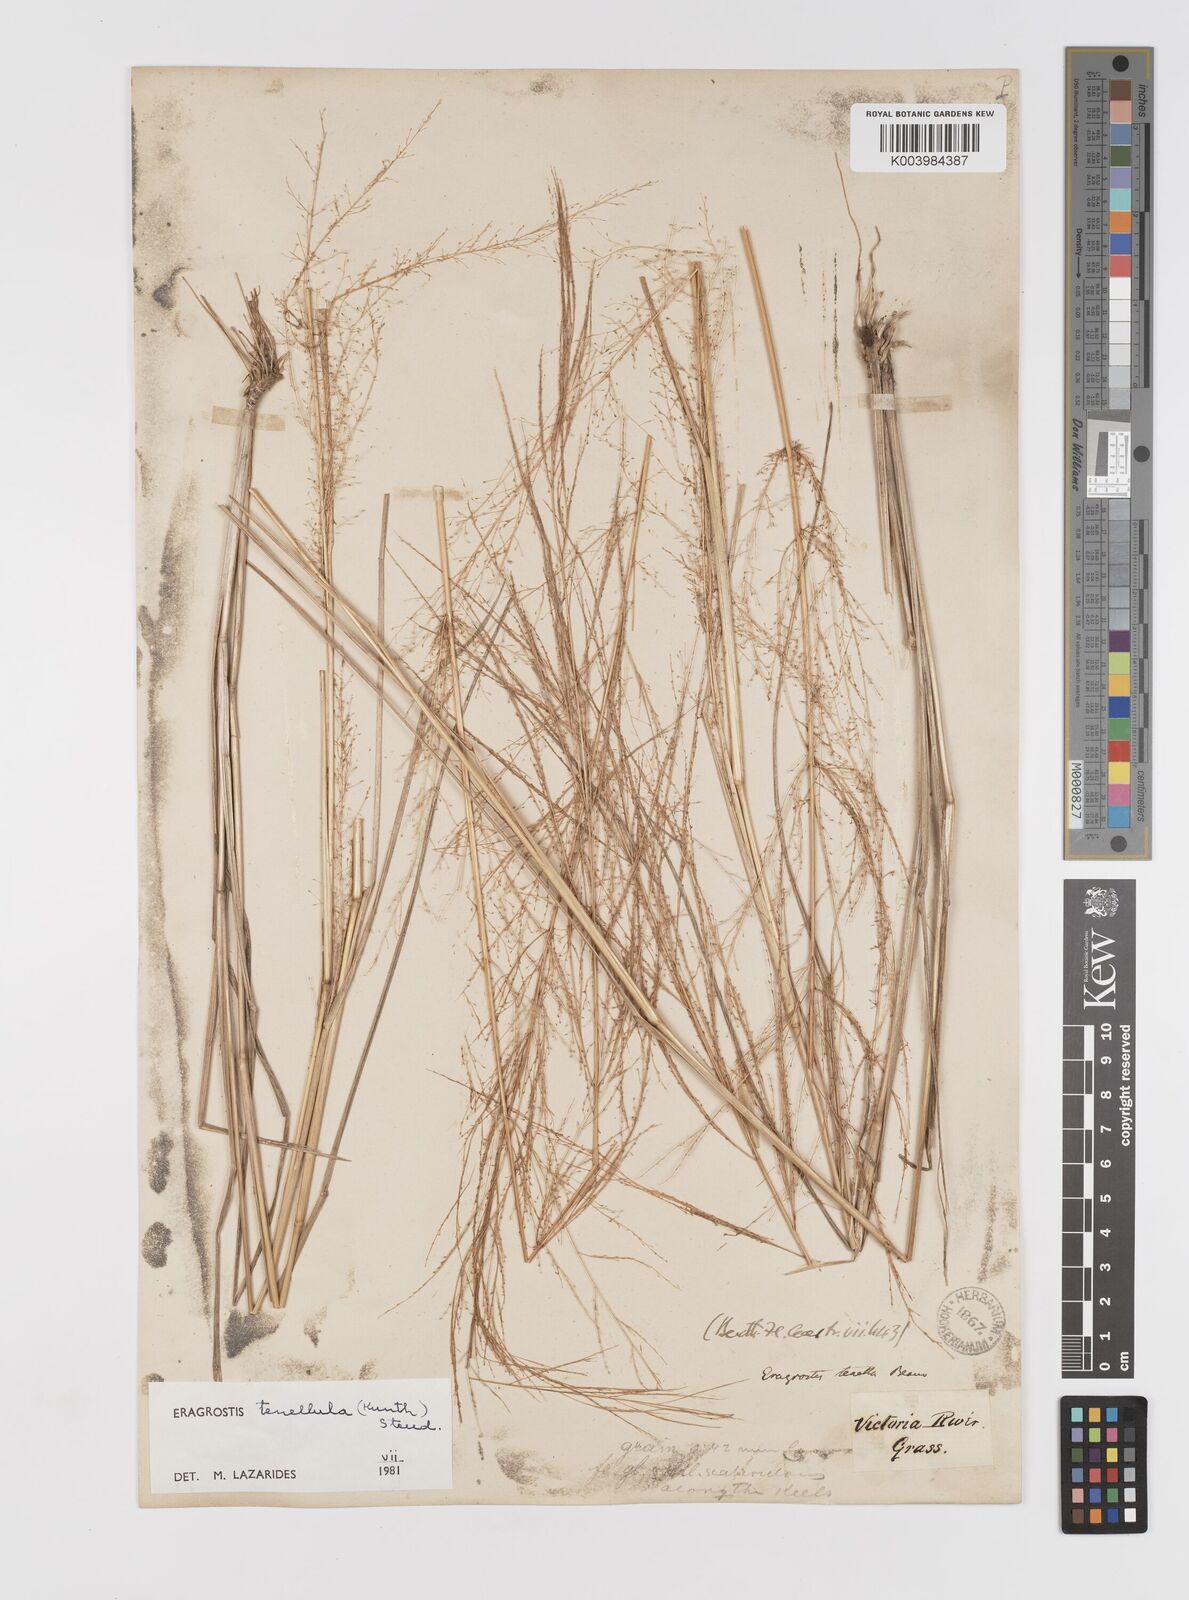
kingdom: Plantae
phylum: Tracheophyta
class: Liliopsida
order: Poales
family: Poaceae
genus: Eragrostis
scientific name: Eragrostis tenellula
